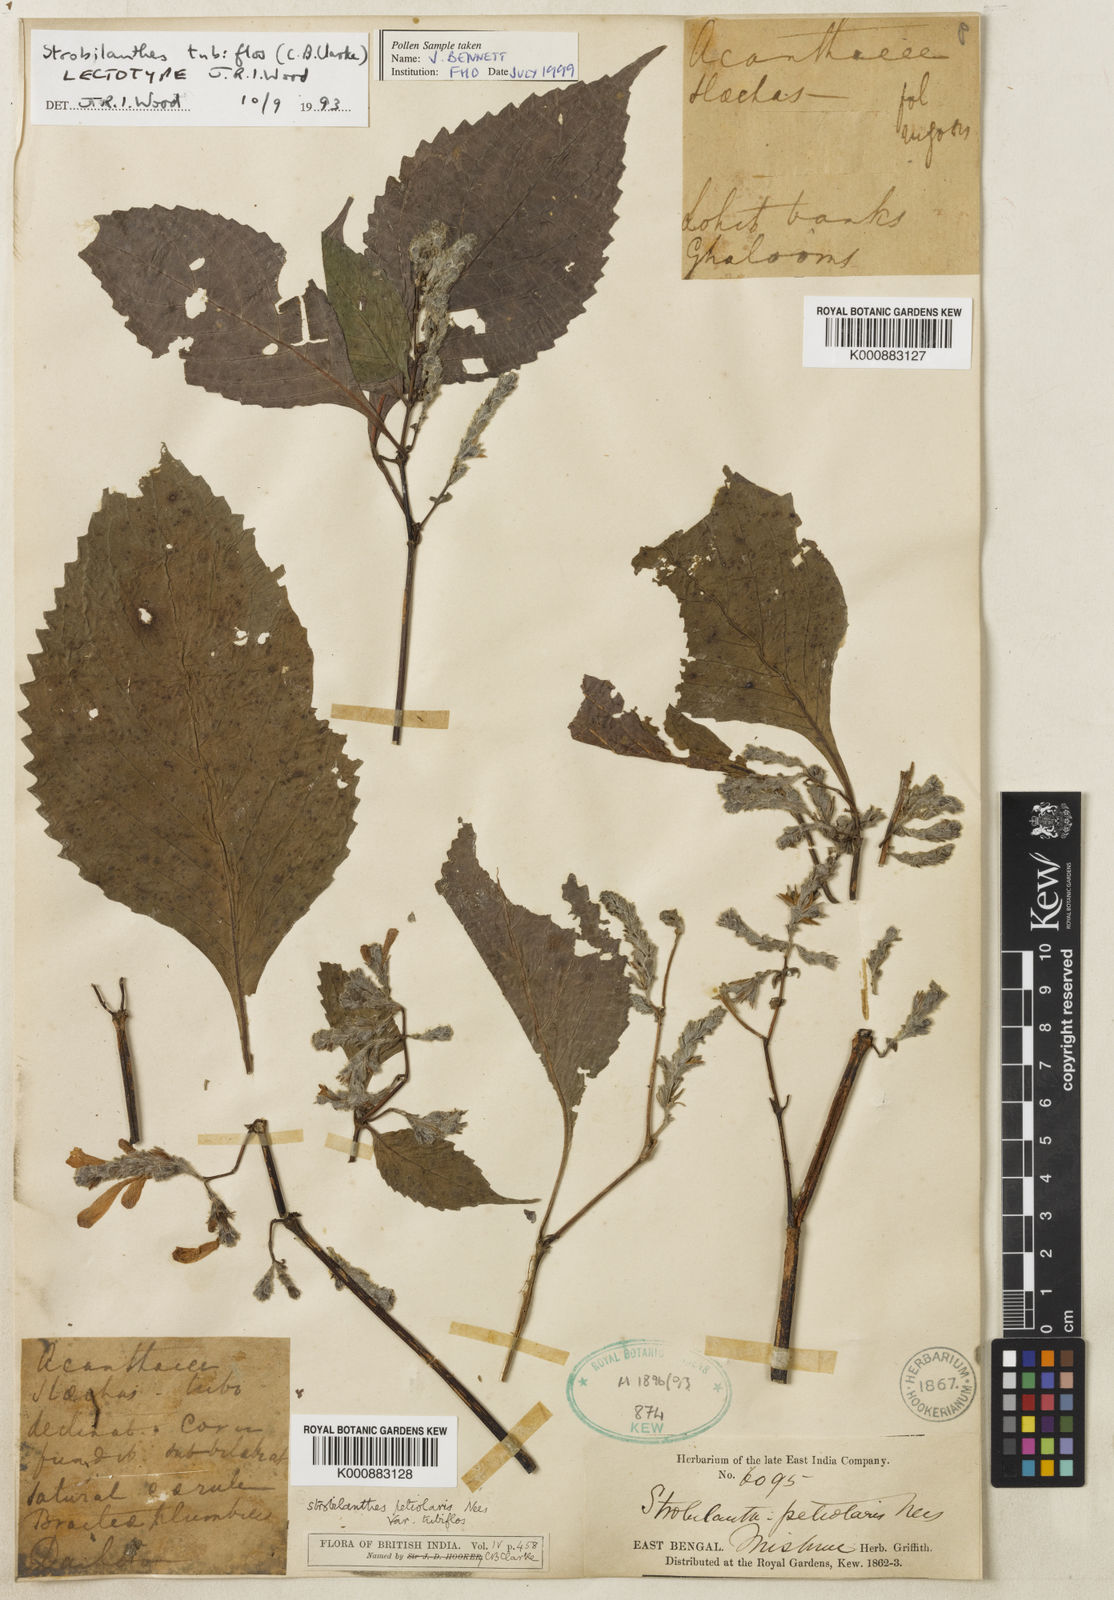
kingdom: Plantae
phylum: Tracheophyta
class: Magnoliopsida
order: Lamiales
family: Acanthaceae
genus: Strobilanthes
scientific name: Strobilanthes tubiflos
